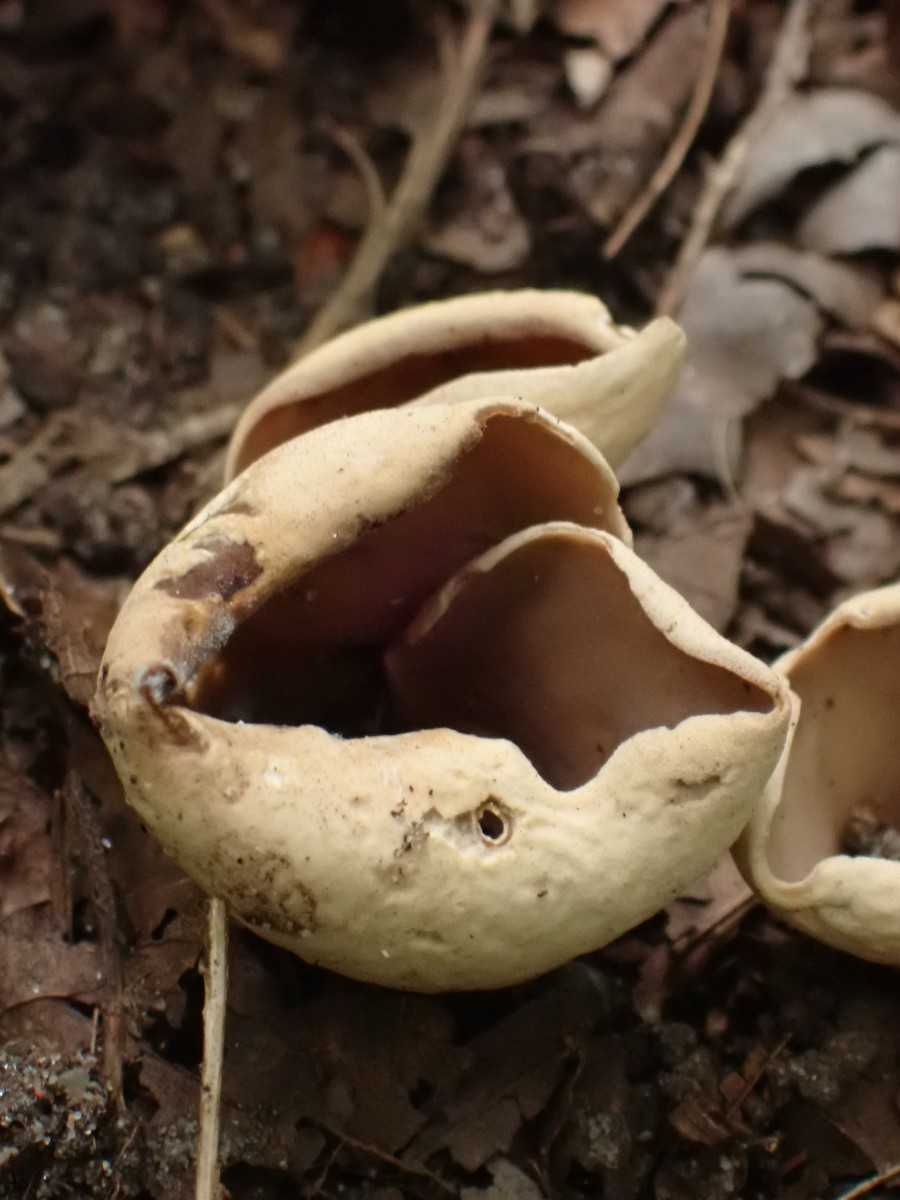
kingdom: Fungi
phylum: Ascomycota
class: Pezizomycetes
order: Pezizales
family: Otideaceae
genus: Otidea
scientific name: Otidea alutacea
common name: læder-ørebæger
